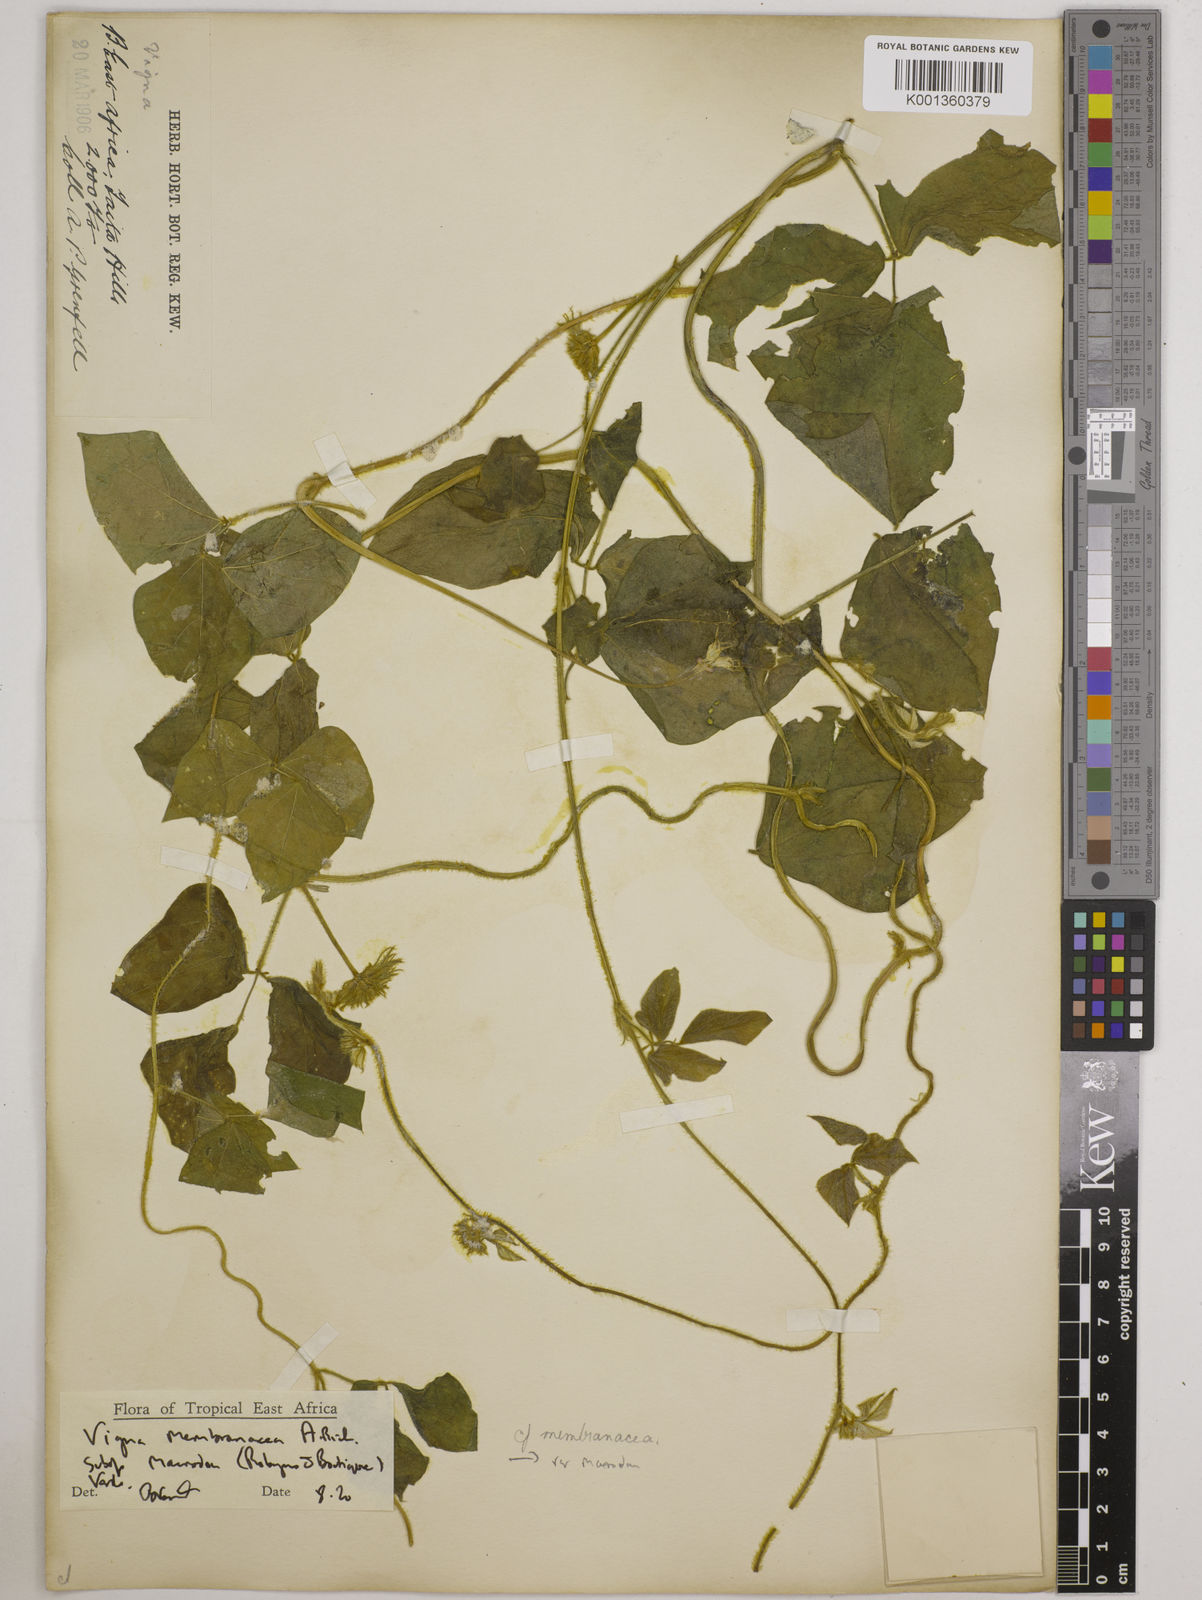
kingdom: Plantae
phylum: Tracheophyta
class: Magnoliopsida
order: Fabales
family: Fabaceae
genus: Vigna
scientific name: Vigna
